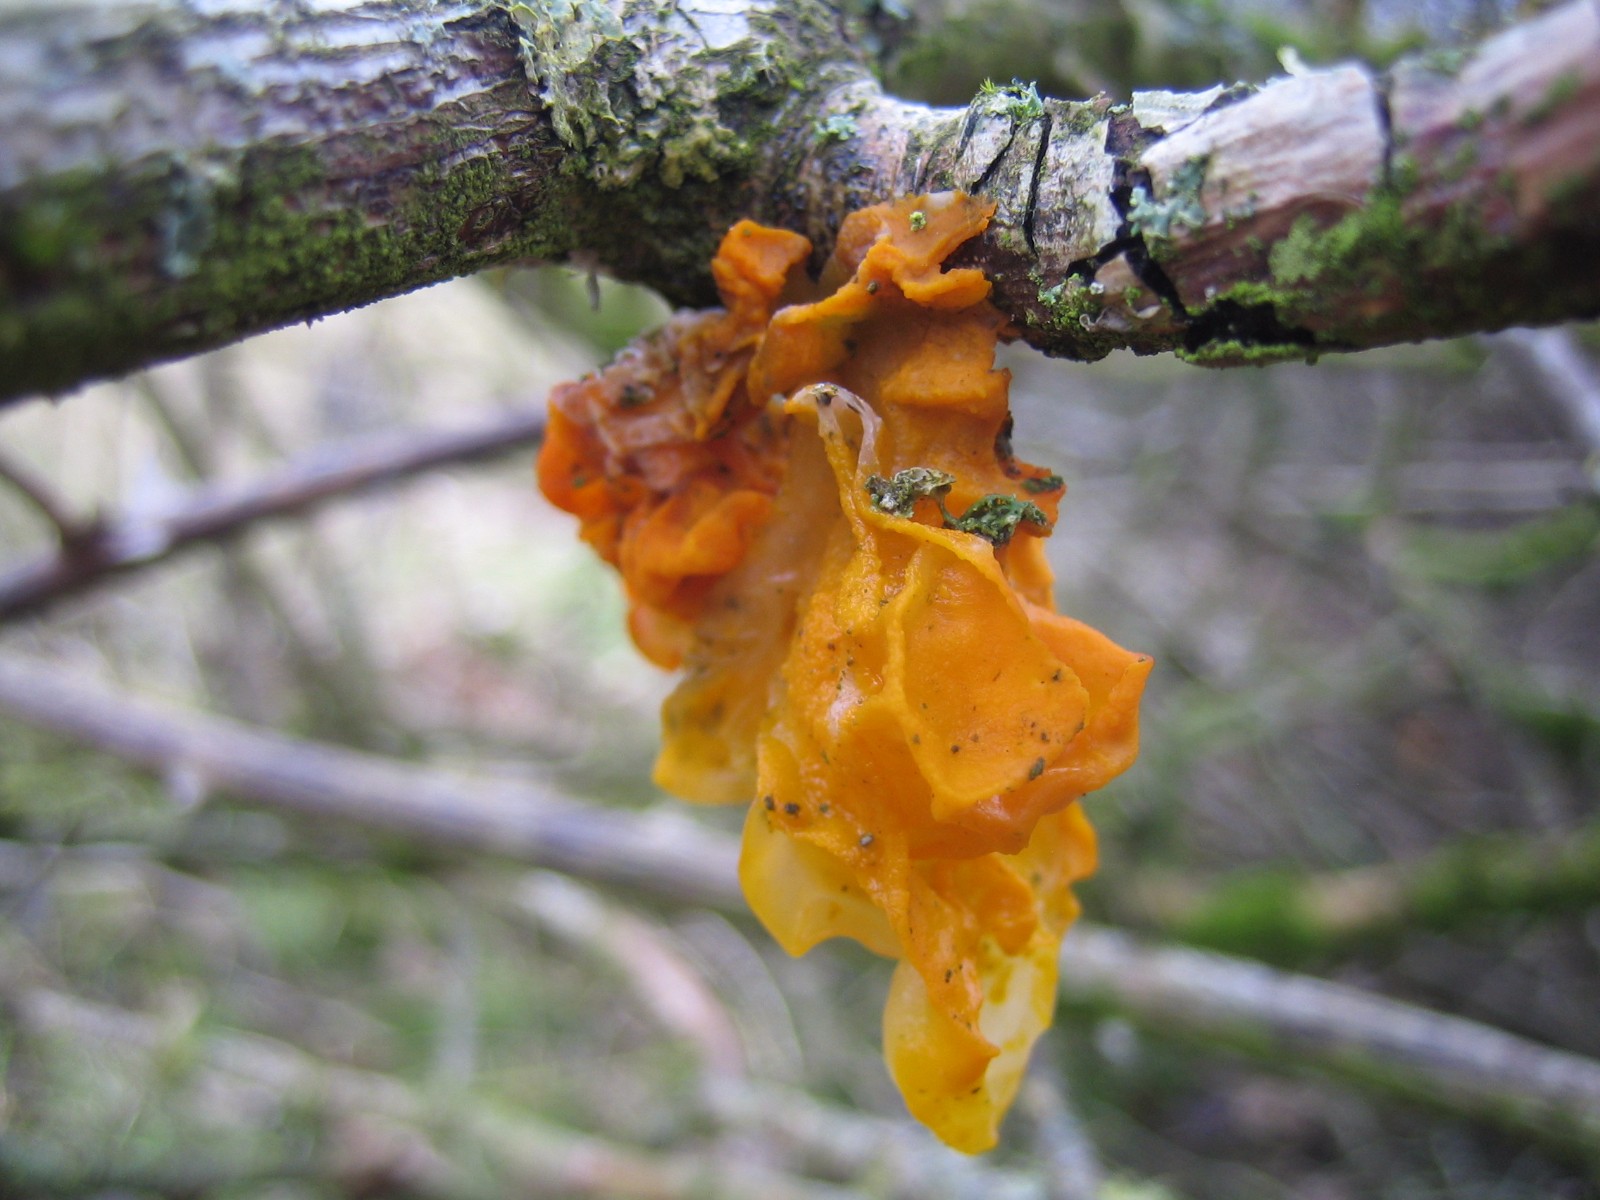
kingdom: Fungi
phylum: Basidiomycota
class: Tremellomycetes
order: Tremellales
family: Tremellaceae
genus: Tremella
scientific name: Tremella mesenterica
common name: gul bævresvamp
